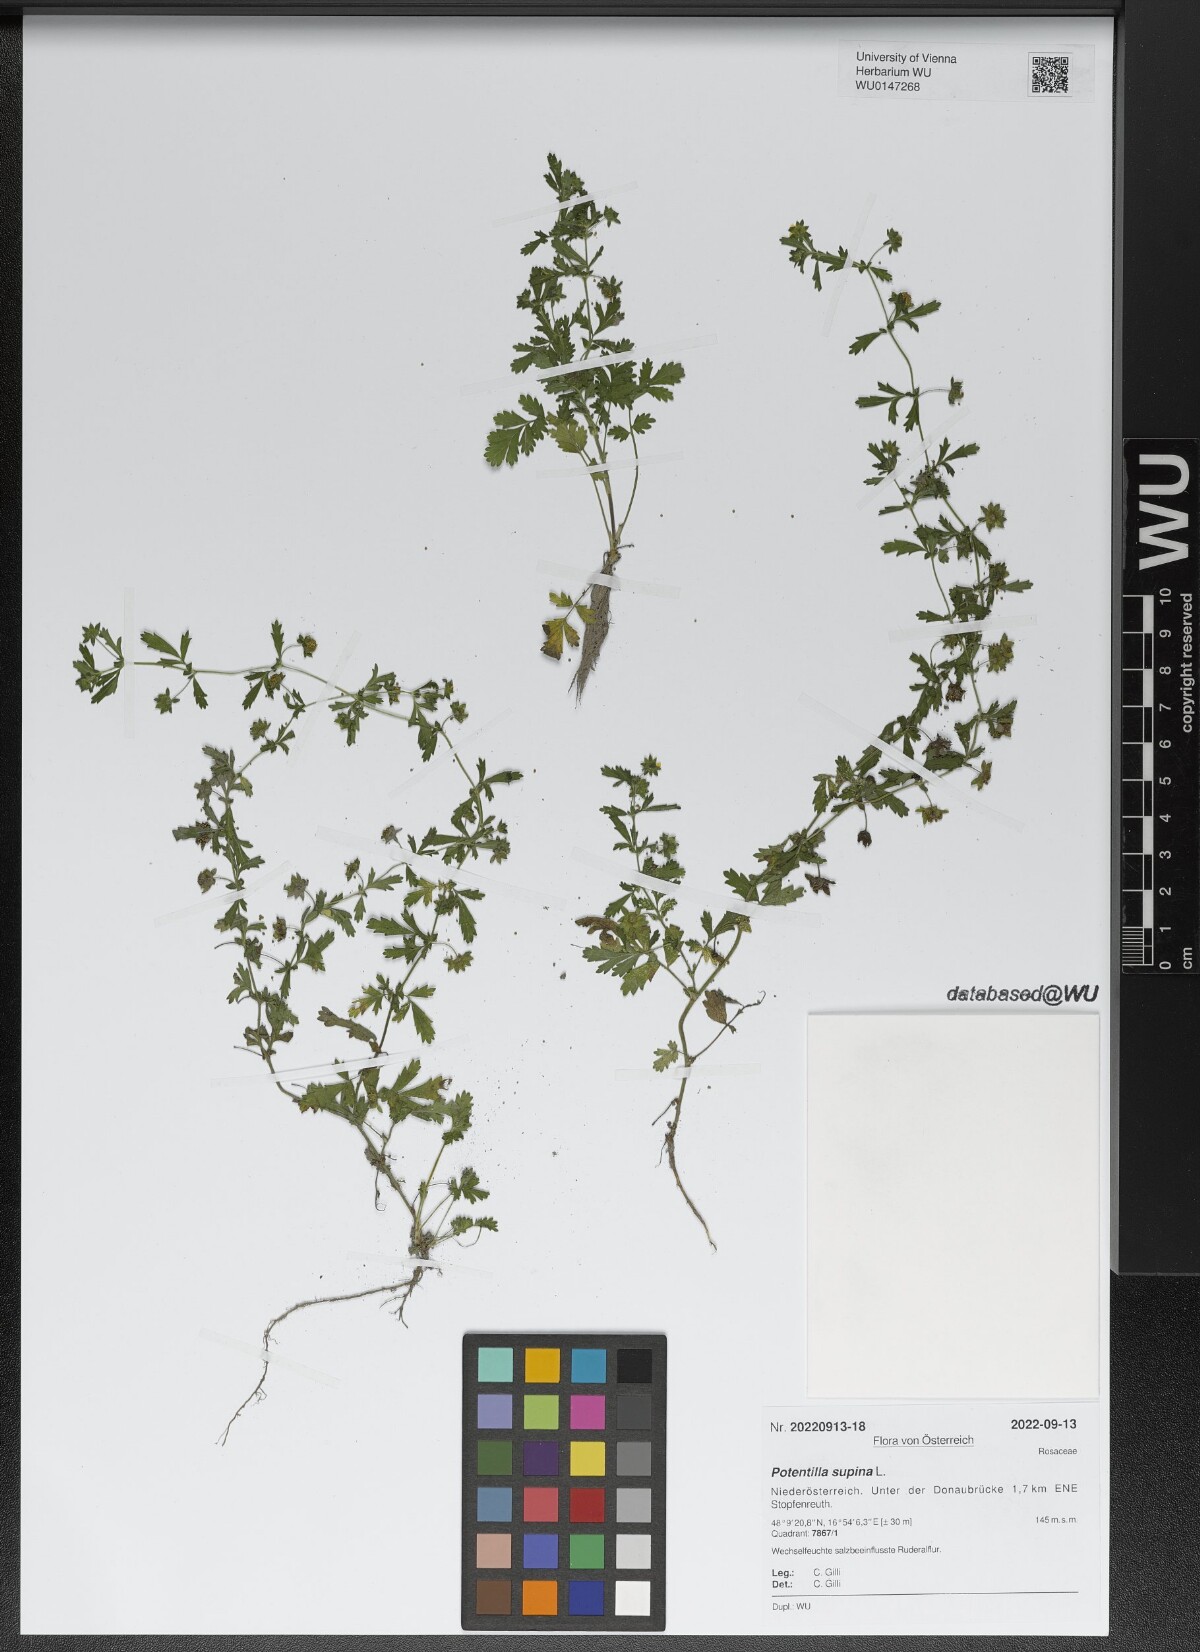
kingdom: Plantae
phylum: Tracheophyta
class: Magnoliopsida
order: Rosales
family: Rosaceae
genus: Potentilla
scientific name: Potentilla supina
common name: Prostrate cinquefoil
